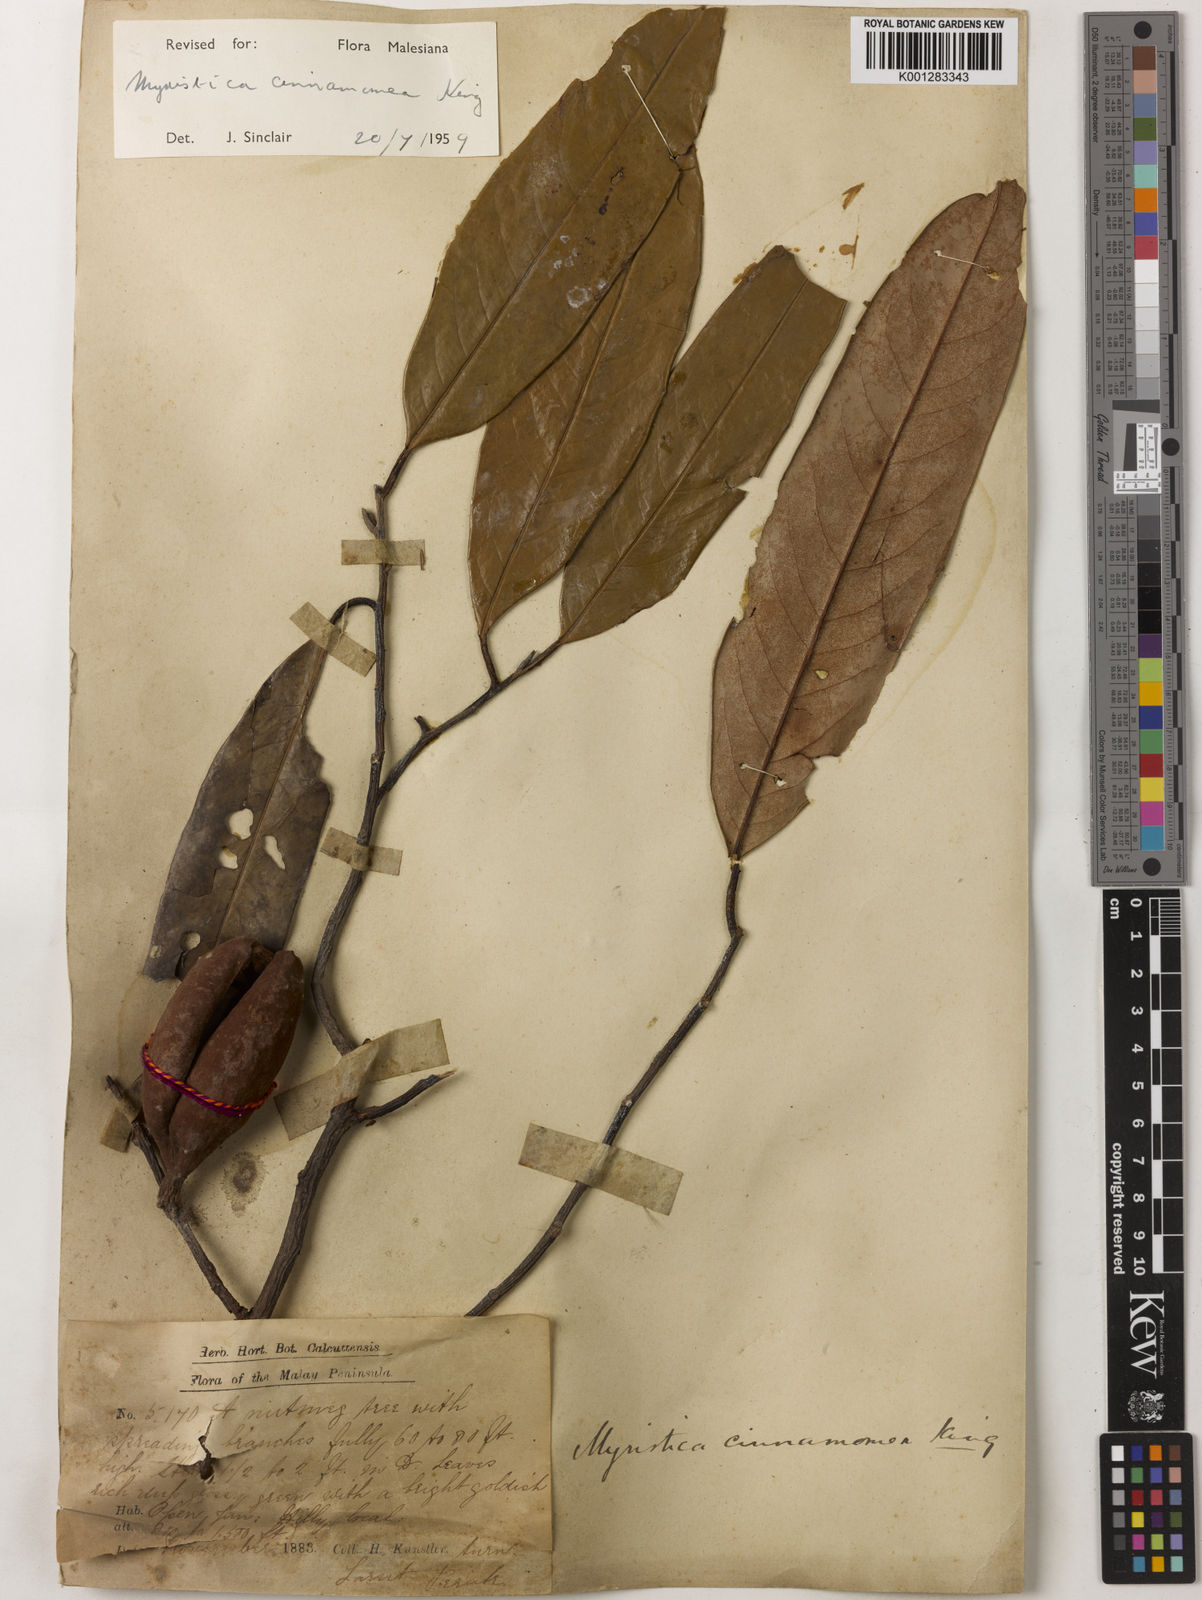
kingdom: Plantae
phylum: Tracheophyta
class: Magnoliopsida
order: Magnoliales
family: Myristicaceae
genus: Myristica
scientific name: Myristica cinnamomea
